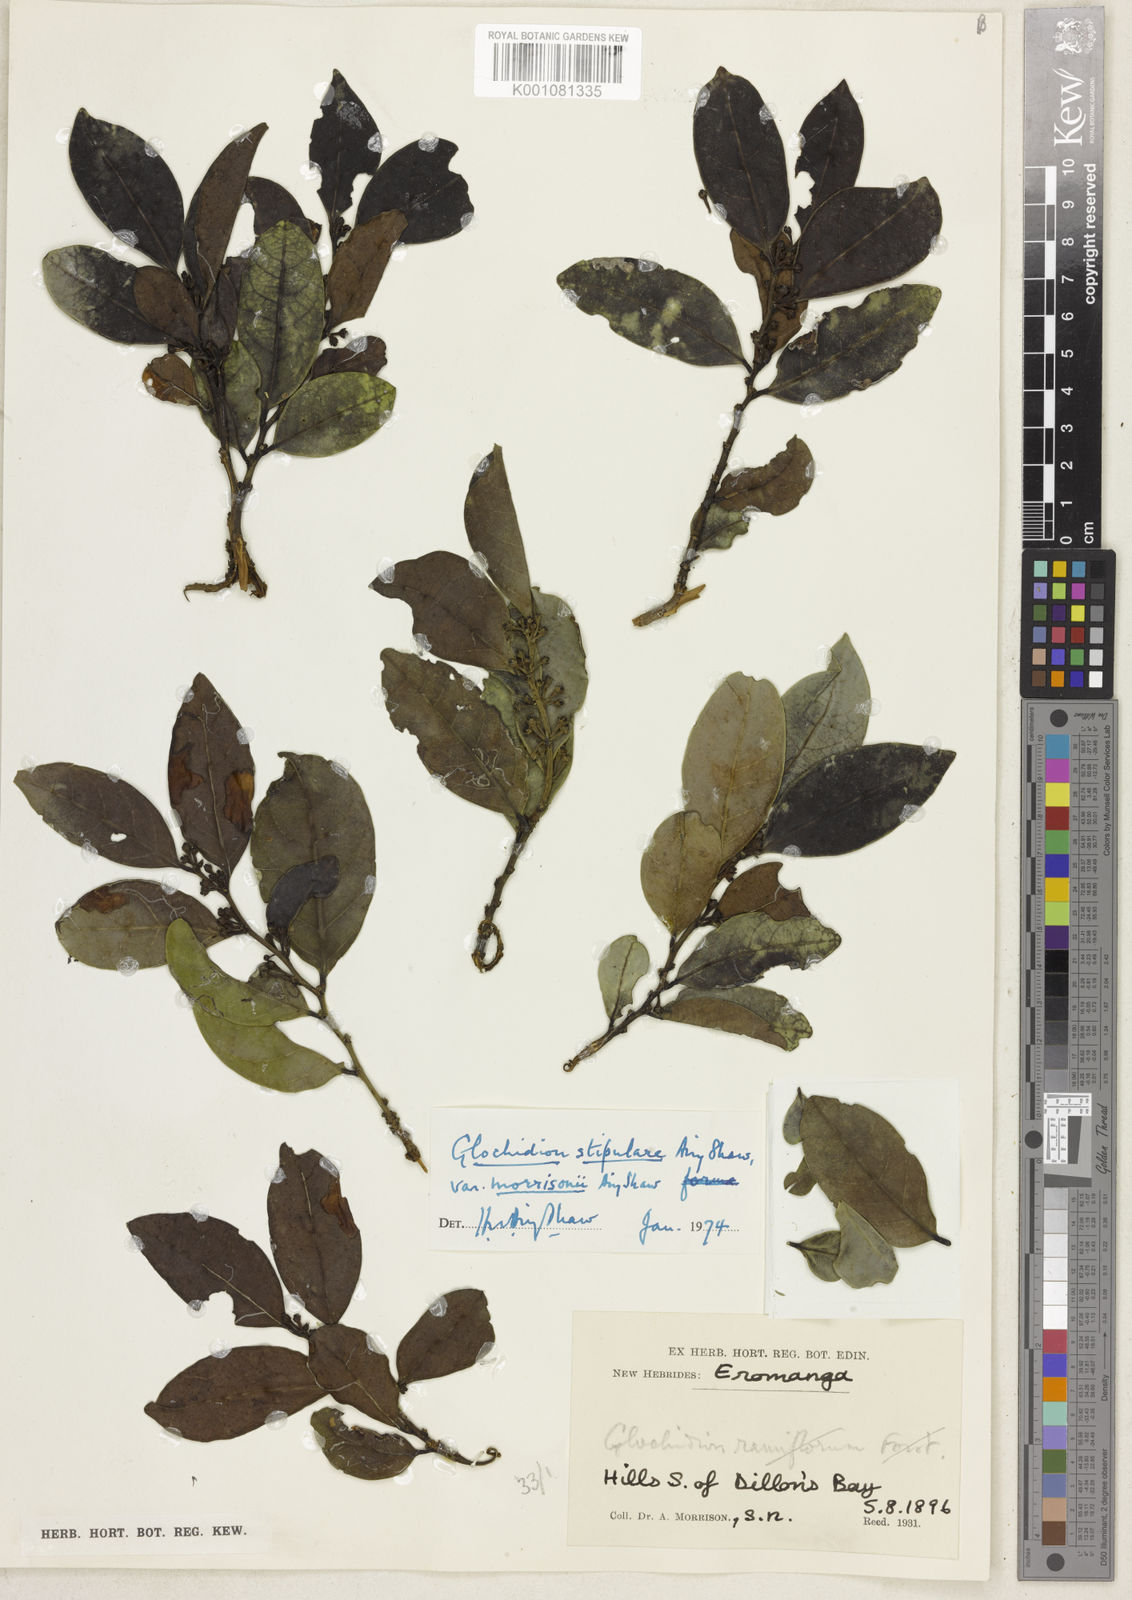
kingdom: Plantae
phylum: Tracheophyta
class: Magnoliopsida
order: Malpighiales
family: Phyllanthaceae
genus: Glochidion
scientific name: Glochidion stipulare
